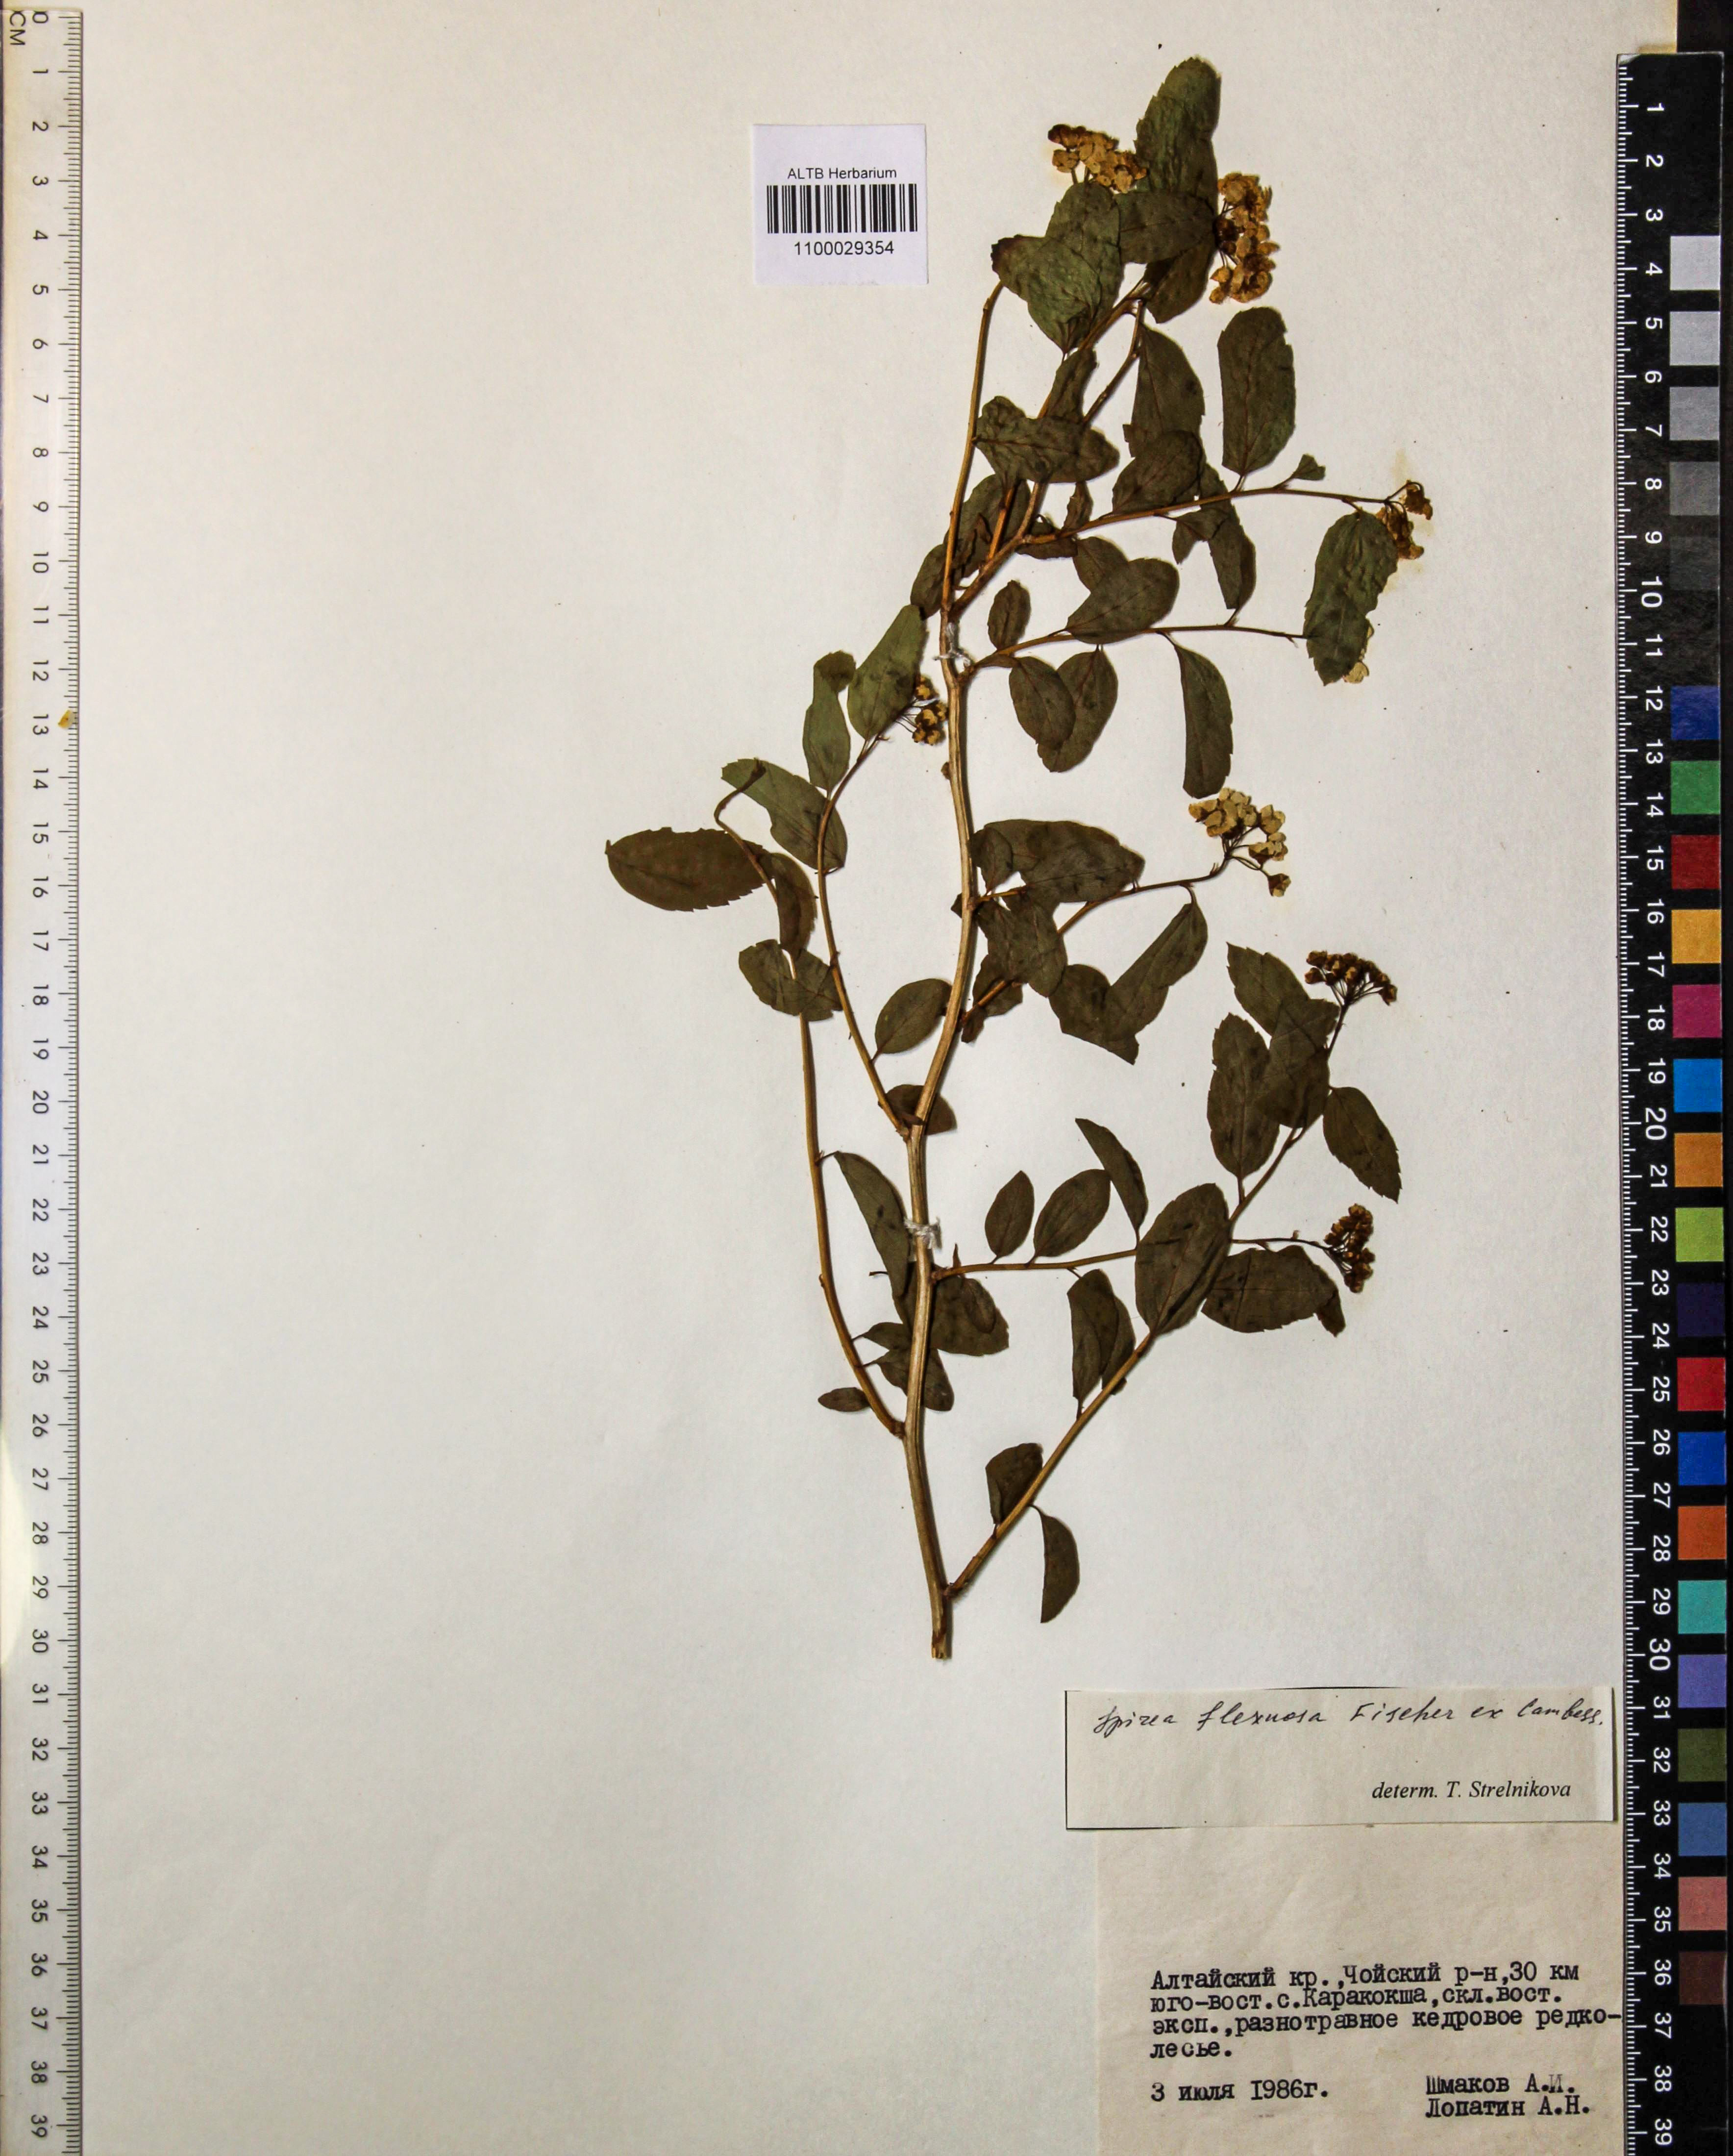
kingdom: Plantae
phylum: Tracheophyta
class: Magnoliopsida
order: Rosales
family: Rosaceae
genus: Spiraea
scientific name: Spiraea flexuosa
